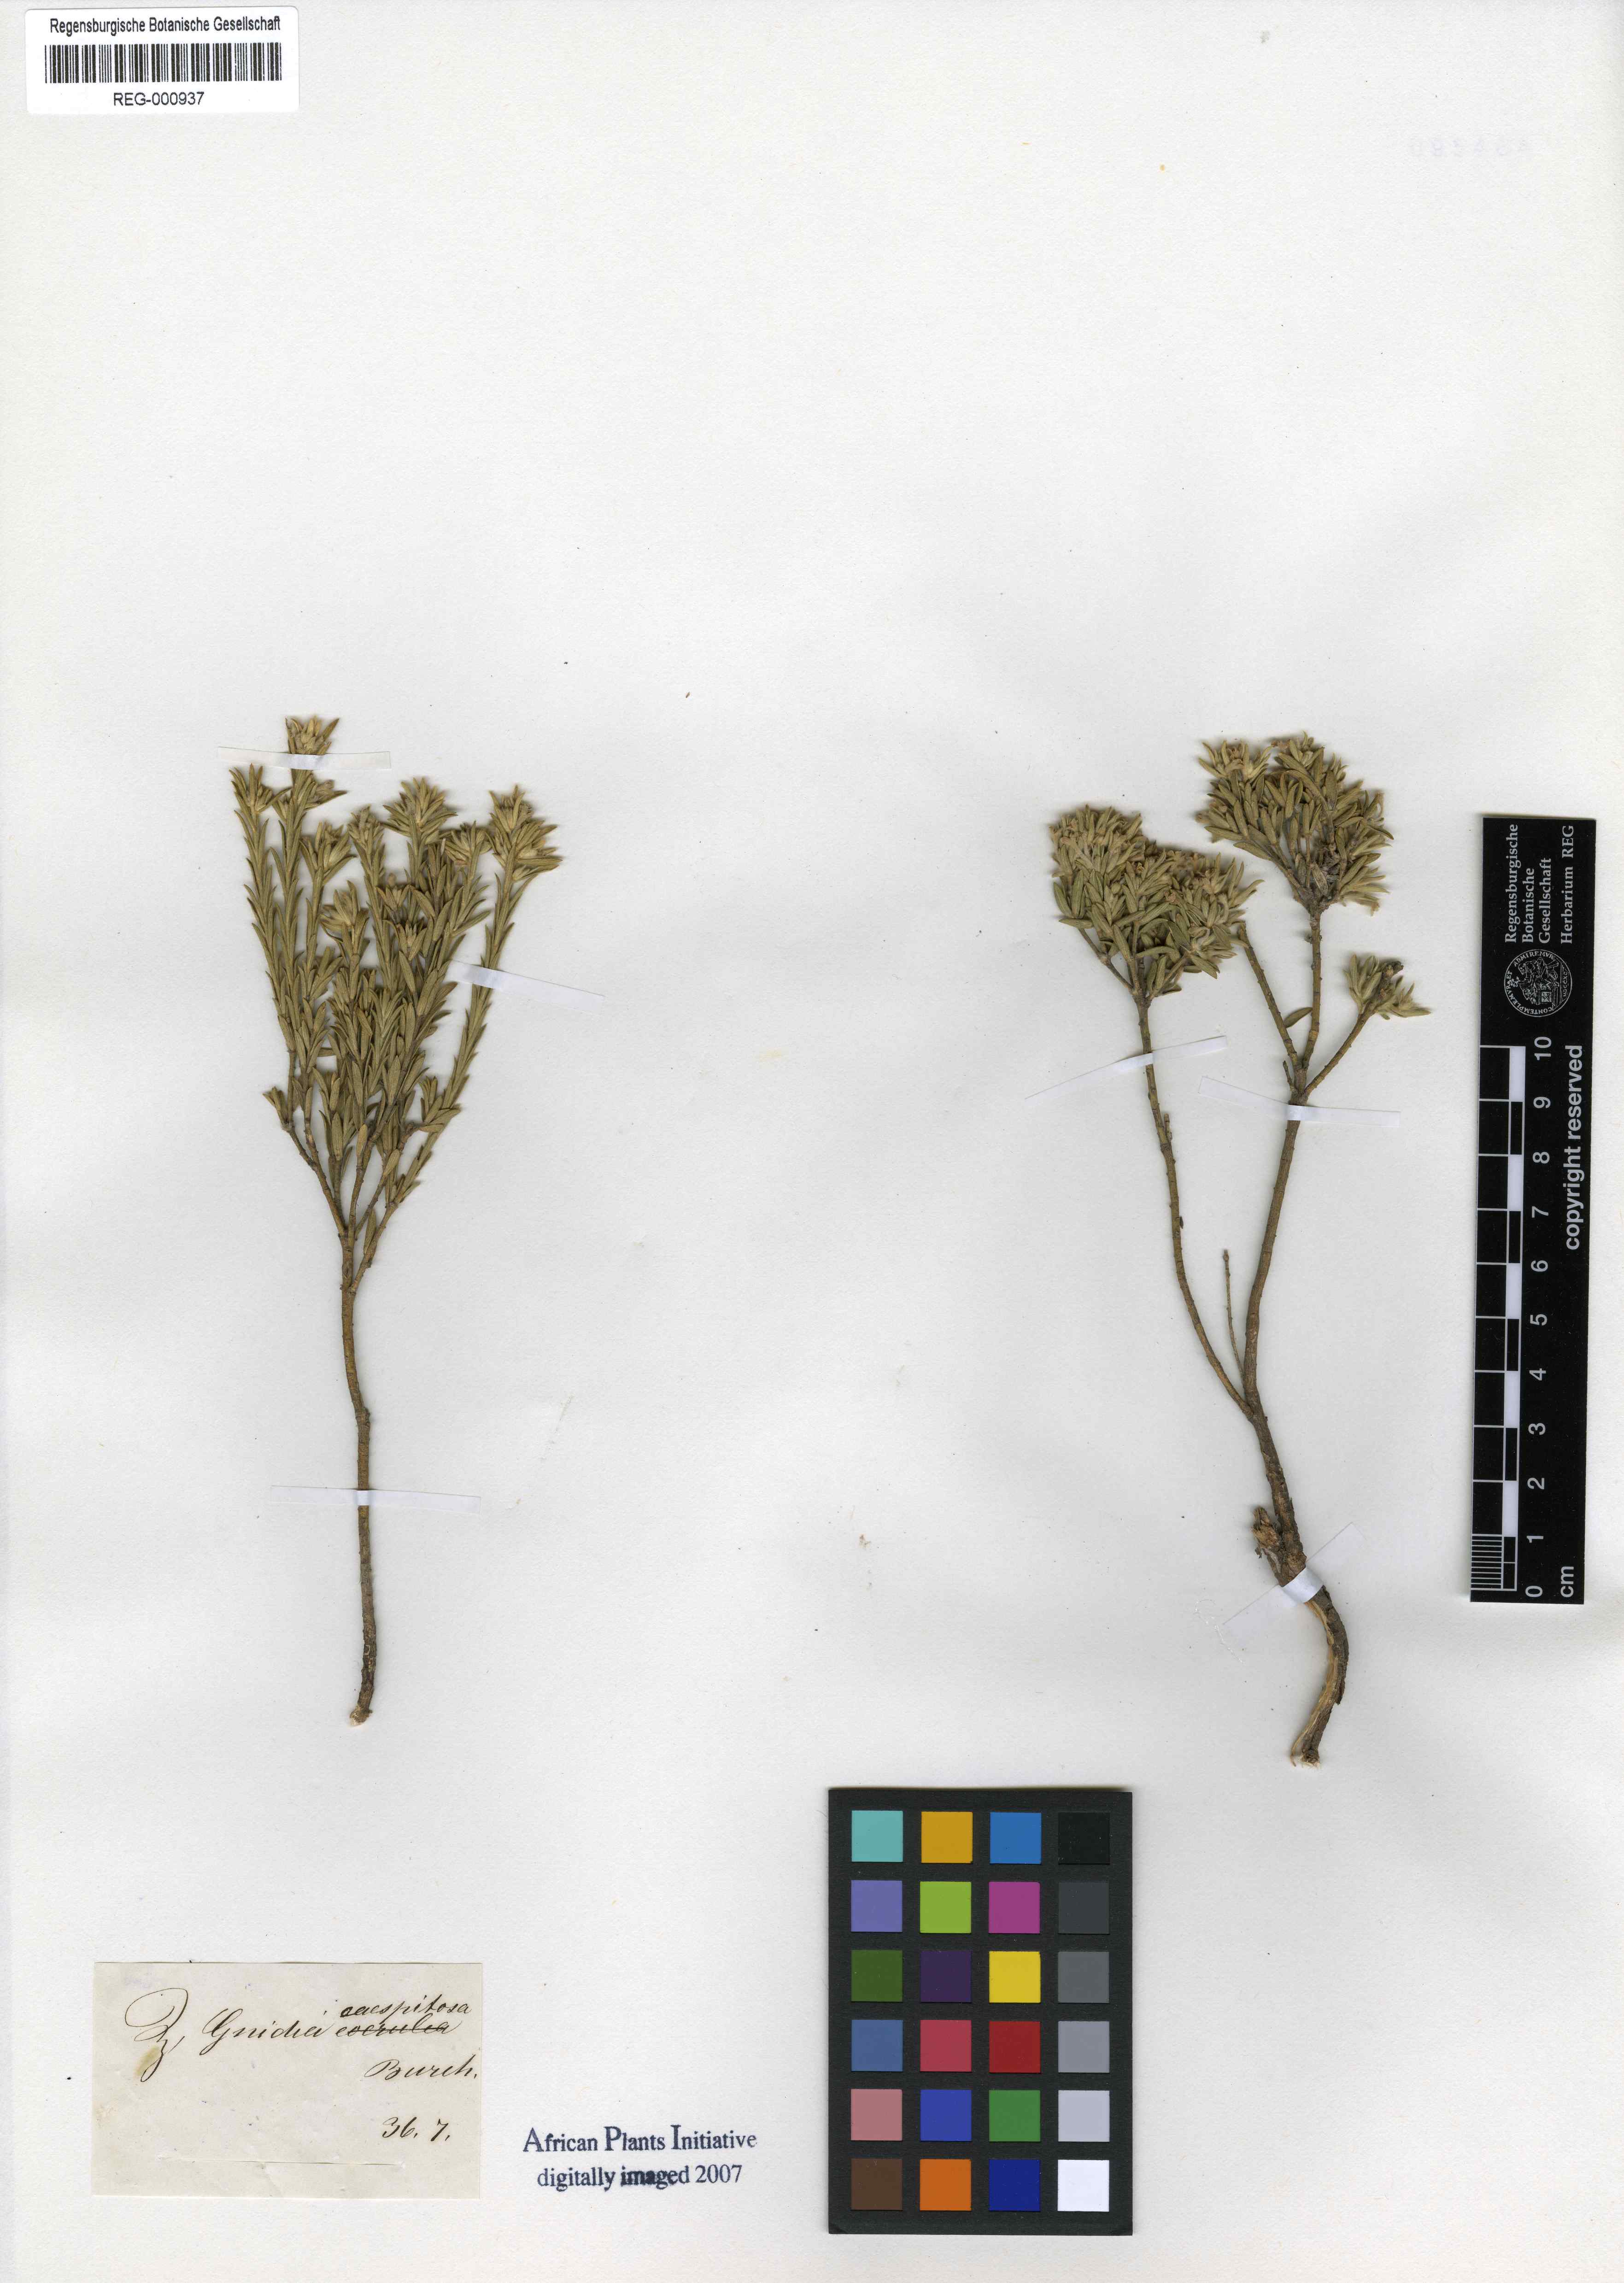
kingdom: Plantae
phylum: Tracheophyta
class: Magnoliopsida
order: Malvales
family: Thymelaeaceae
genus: Gnidia
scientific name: Gnidia nodiflora
